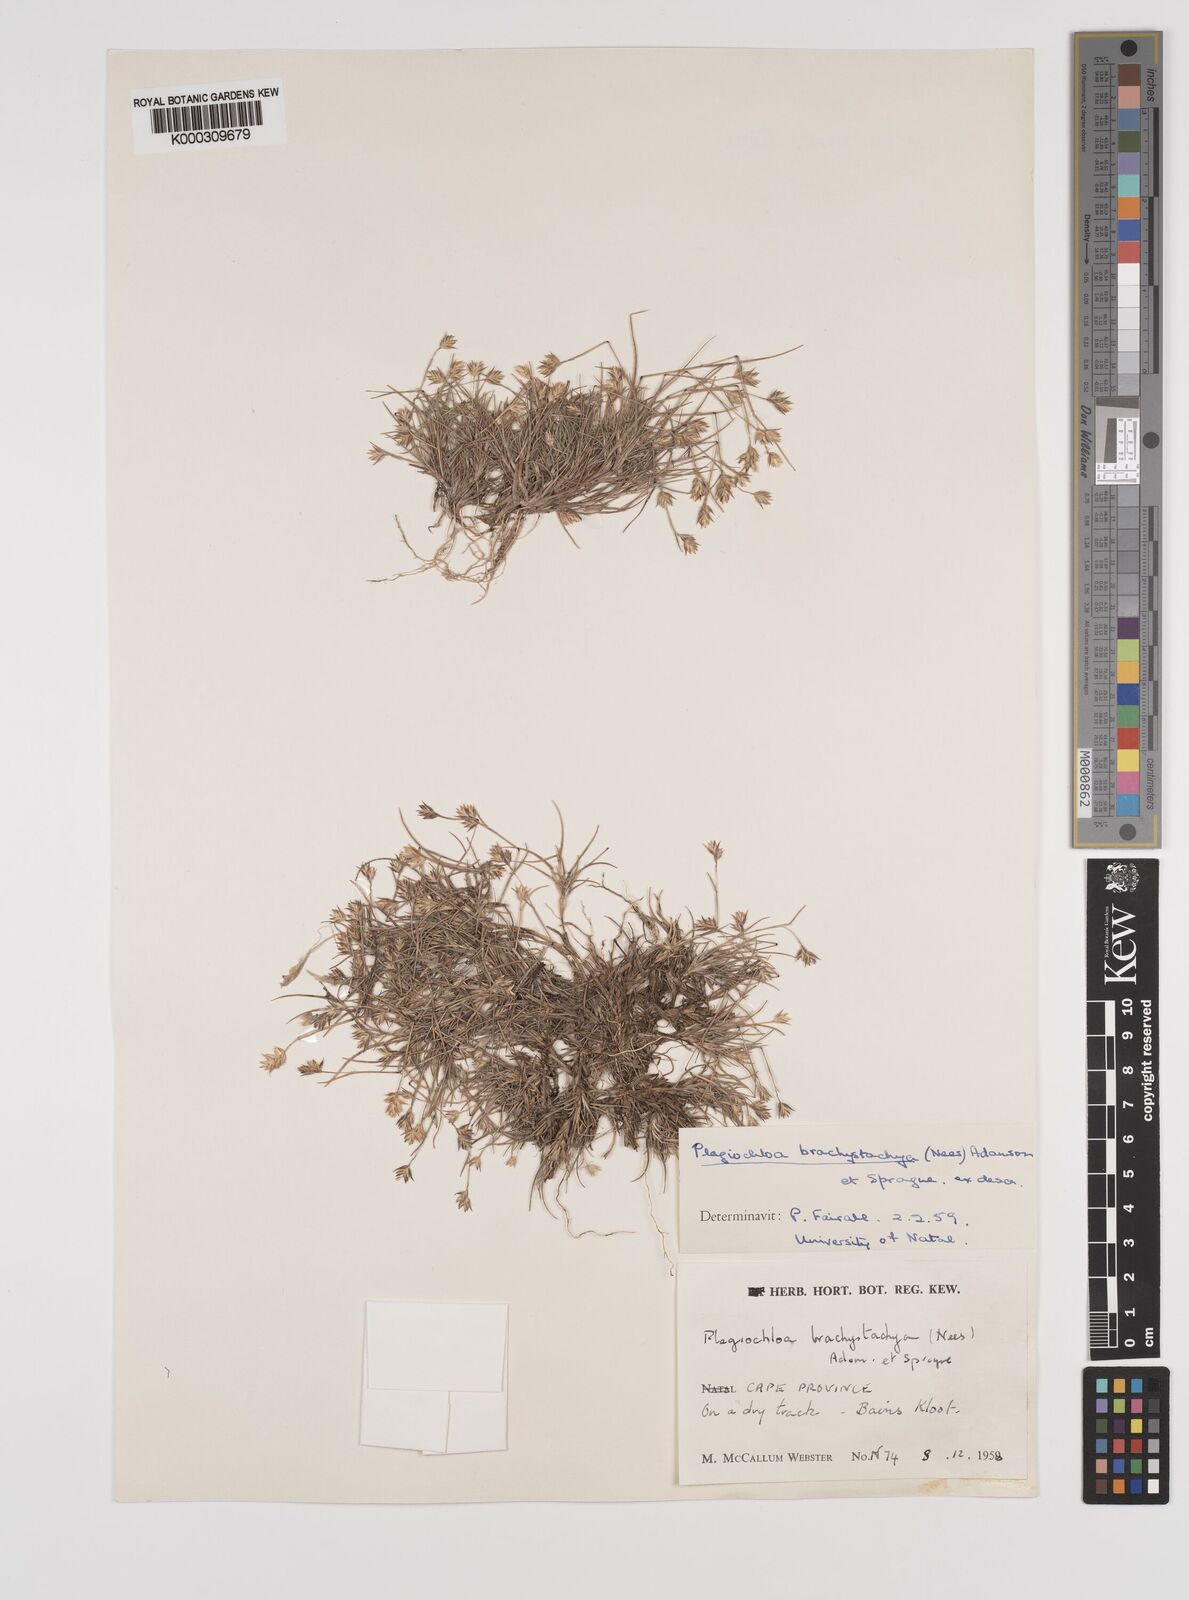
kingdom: Plantae
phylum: Tracheophyta
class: Liliopsida
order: Poales
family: Poaceae
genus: Tribolium
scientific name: Tribolium brachystachyum
